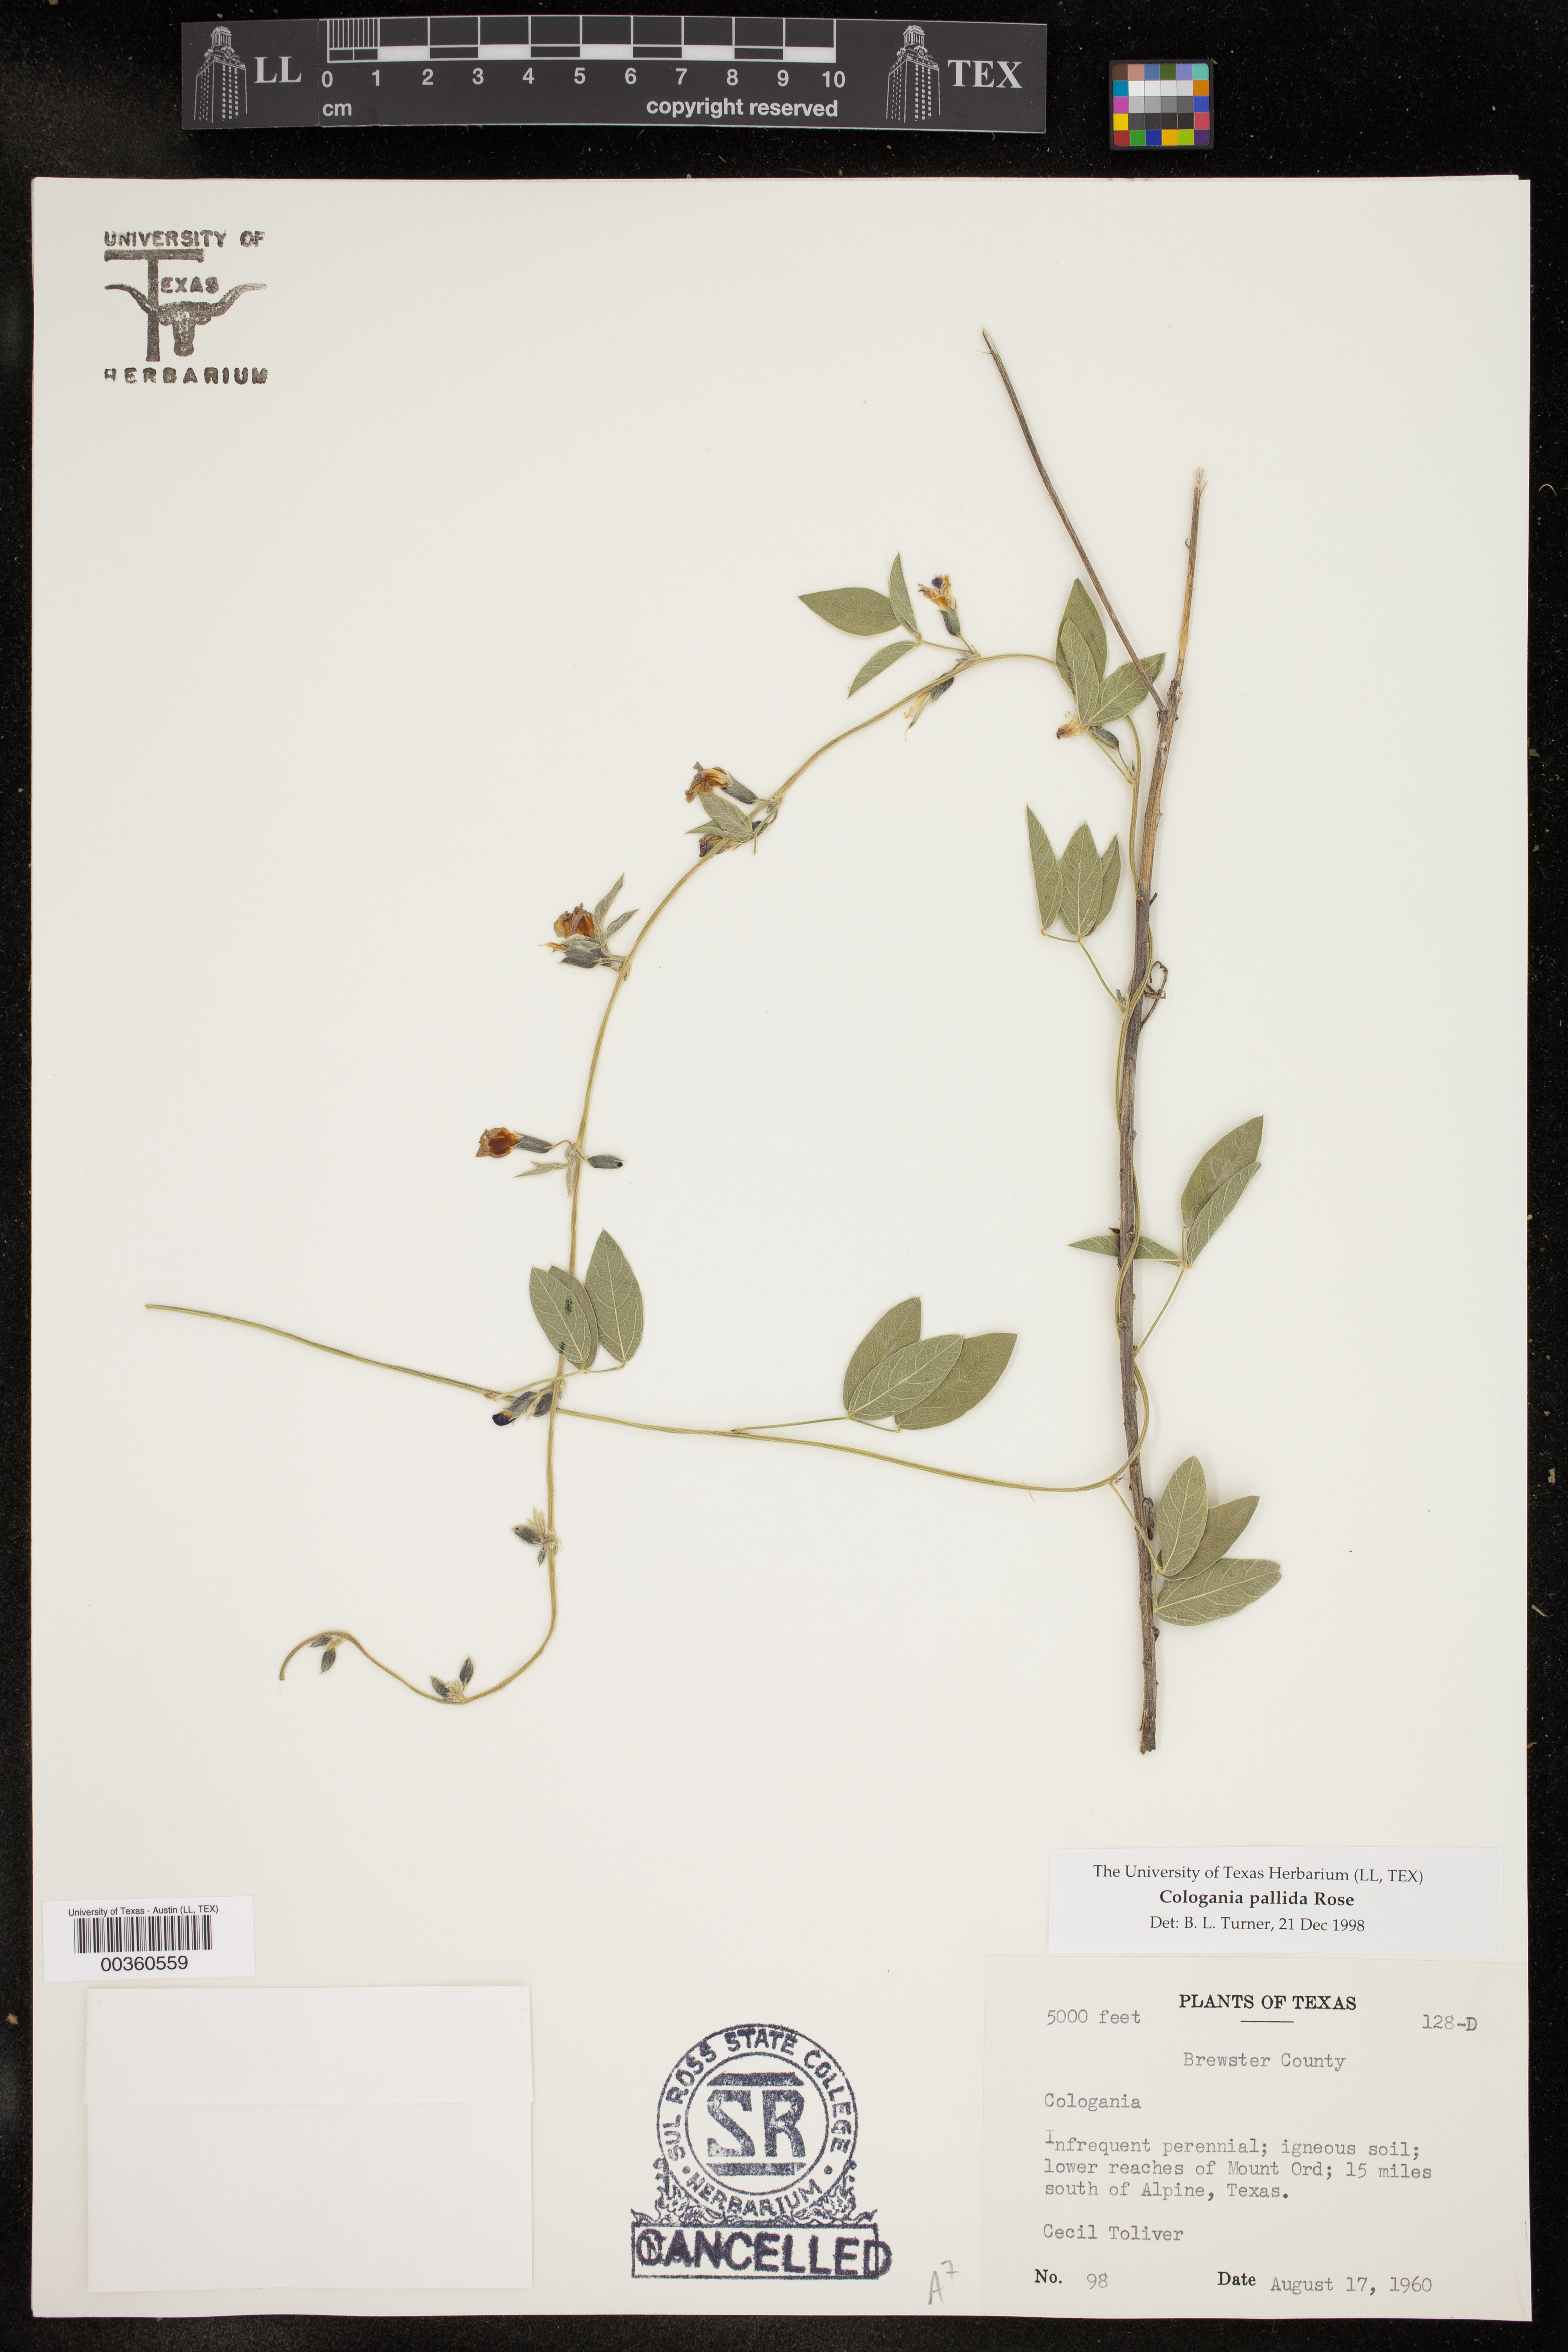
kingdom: Plantae
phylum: Tracheophyta
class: Magnoliopsida
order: Fabales
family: Fabaceae
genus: Cologania
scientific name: Cologania pallida
